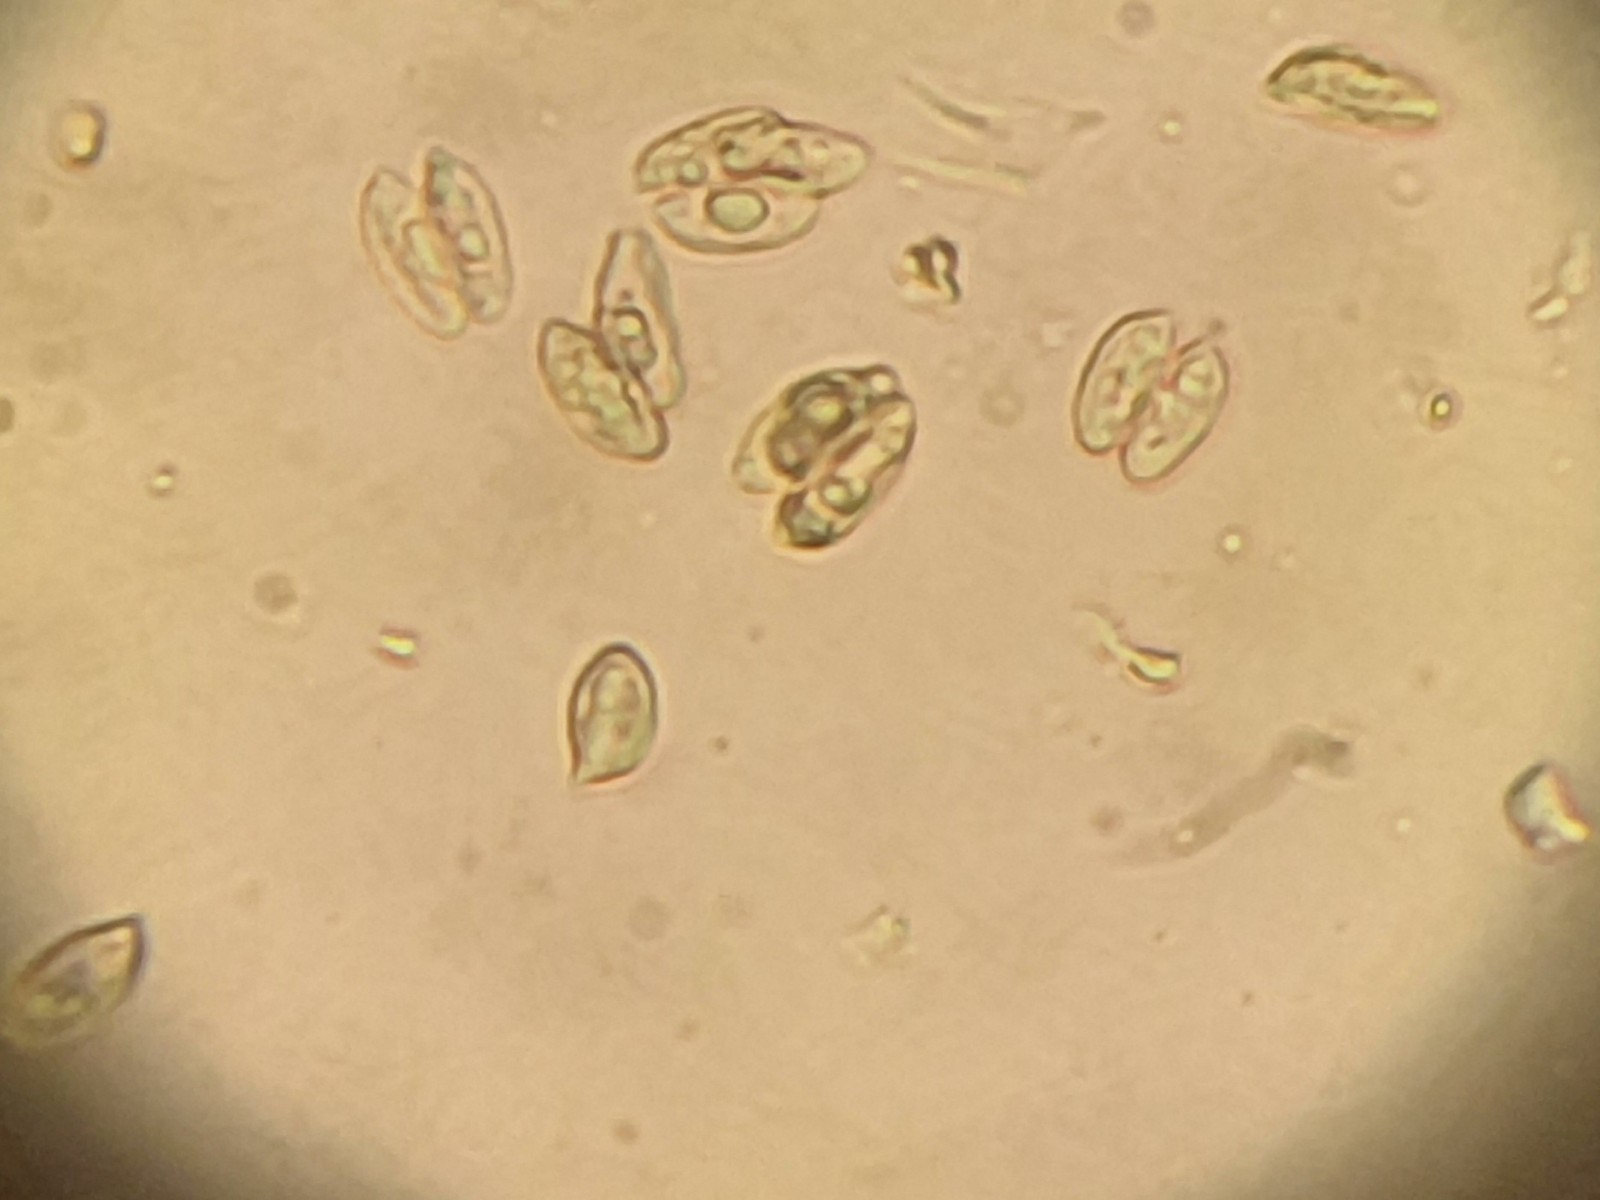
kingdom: Fungi
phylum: Basidiomycota
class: Agaricomycetes
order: Agaricales
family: Entolomataceae
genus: Clitopilus
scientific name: Clitopilus
